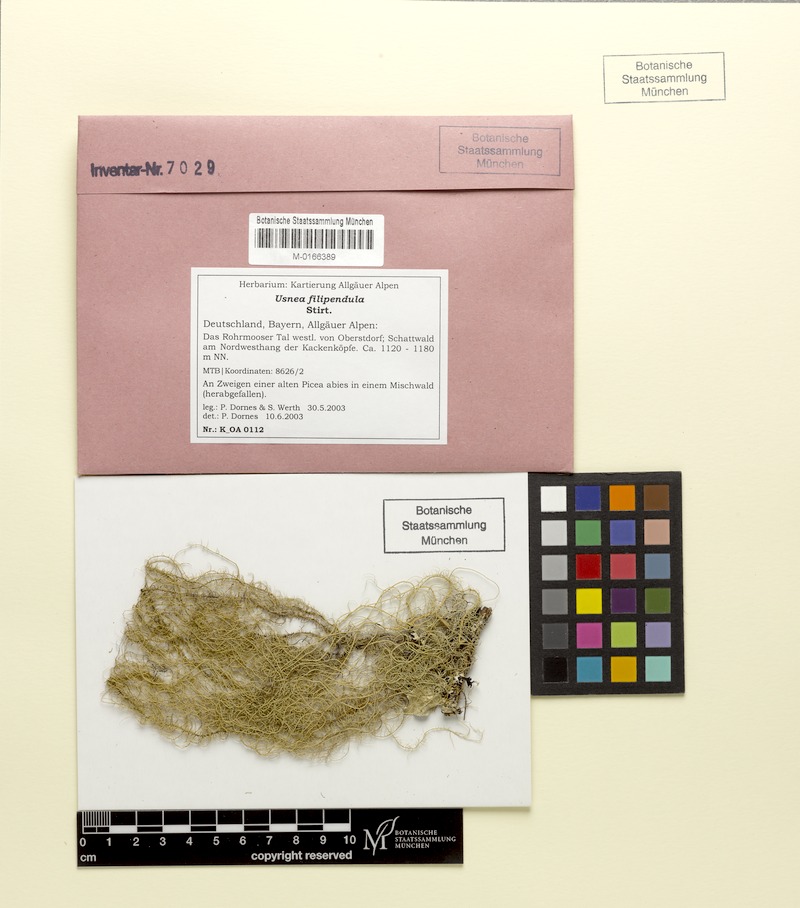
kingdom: Fungi
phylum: Ascomycota
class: Lecanoromycetes
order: Lecanorales
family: Parmeliaceae
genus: Usnea
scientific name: Usnea filipendula
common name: Fishbone beard lichen
